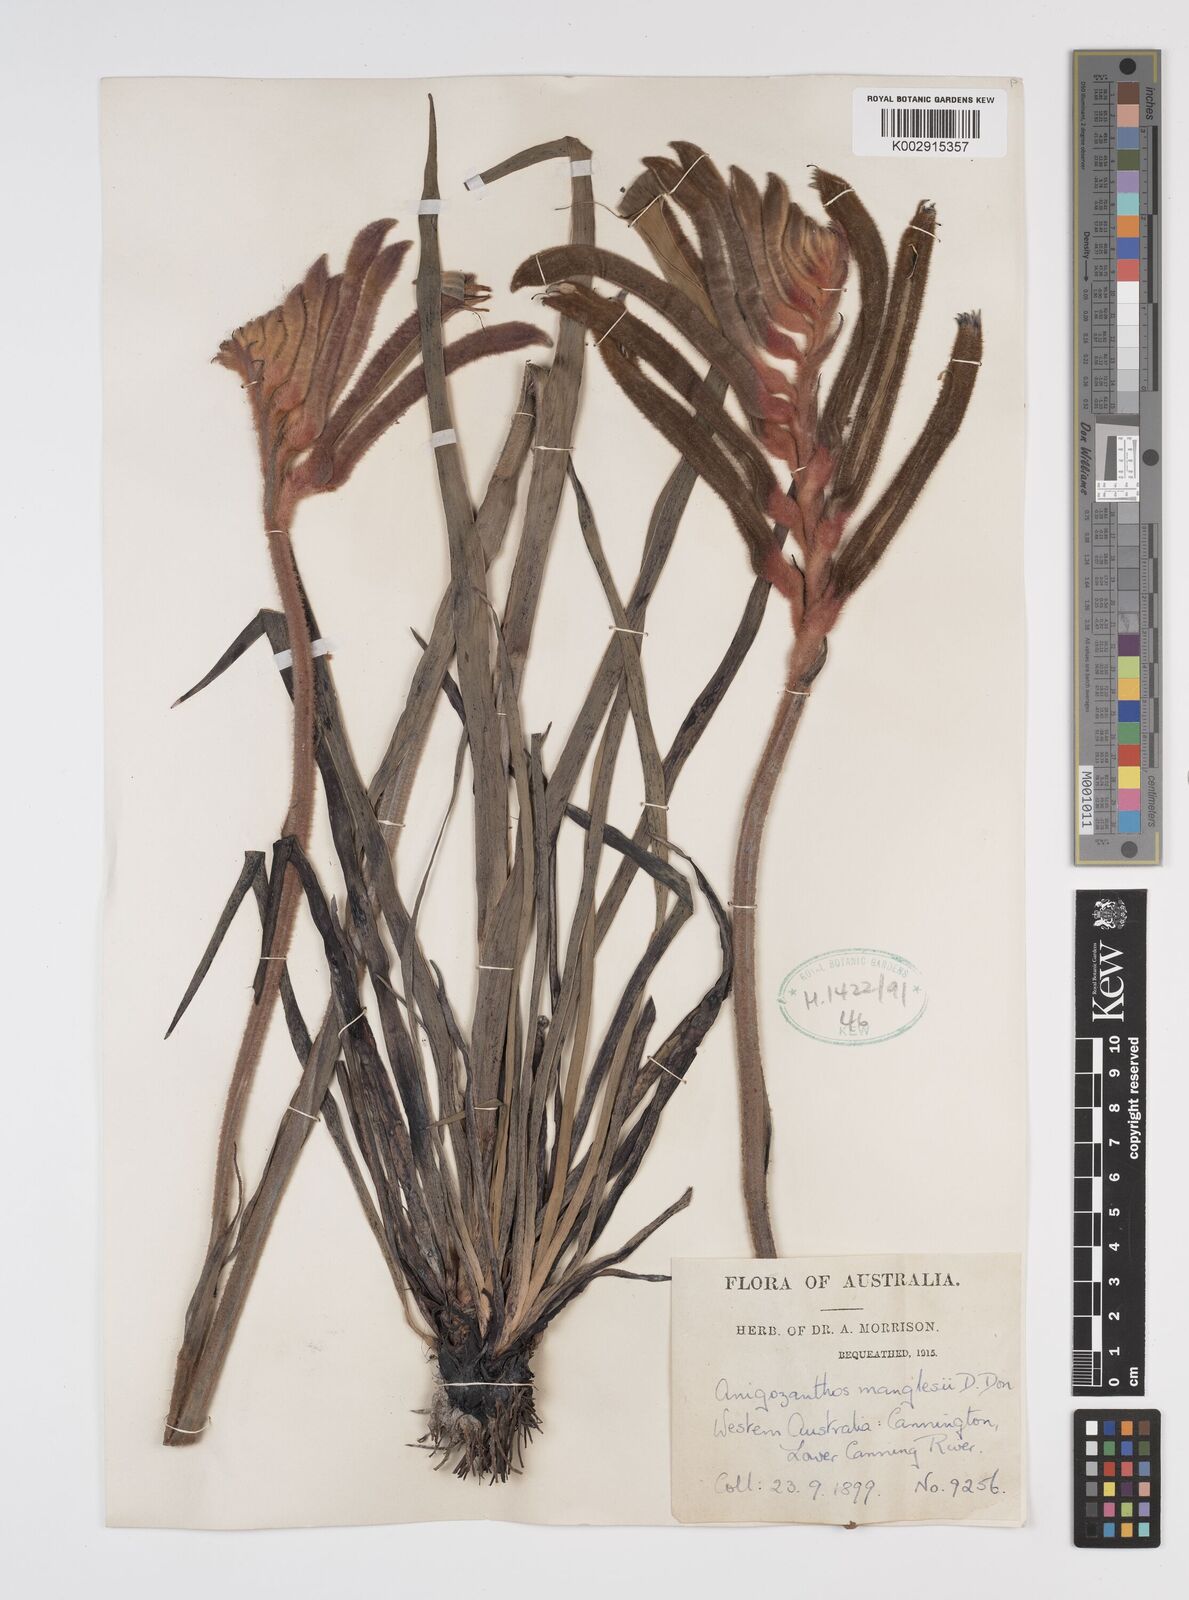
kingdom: Plantae
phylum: Tracheophyta
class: Liliopsida
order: Commelinales
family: Haemodoraceae
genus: Anigozanthos
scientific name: Anigozanthos manglesii
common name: Mangles's kangaroo-paw
